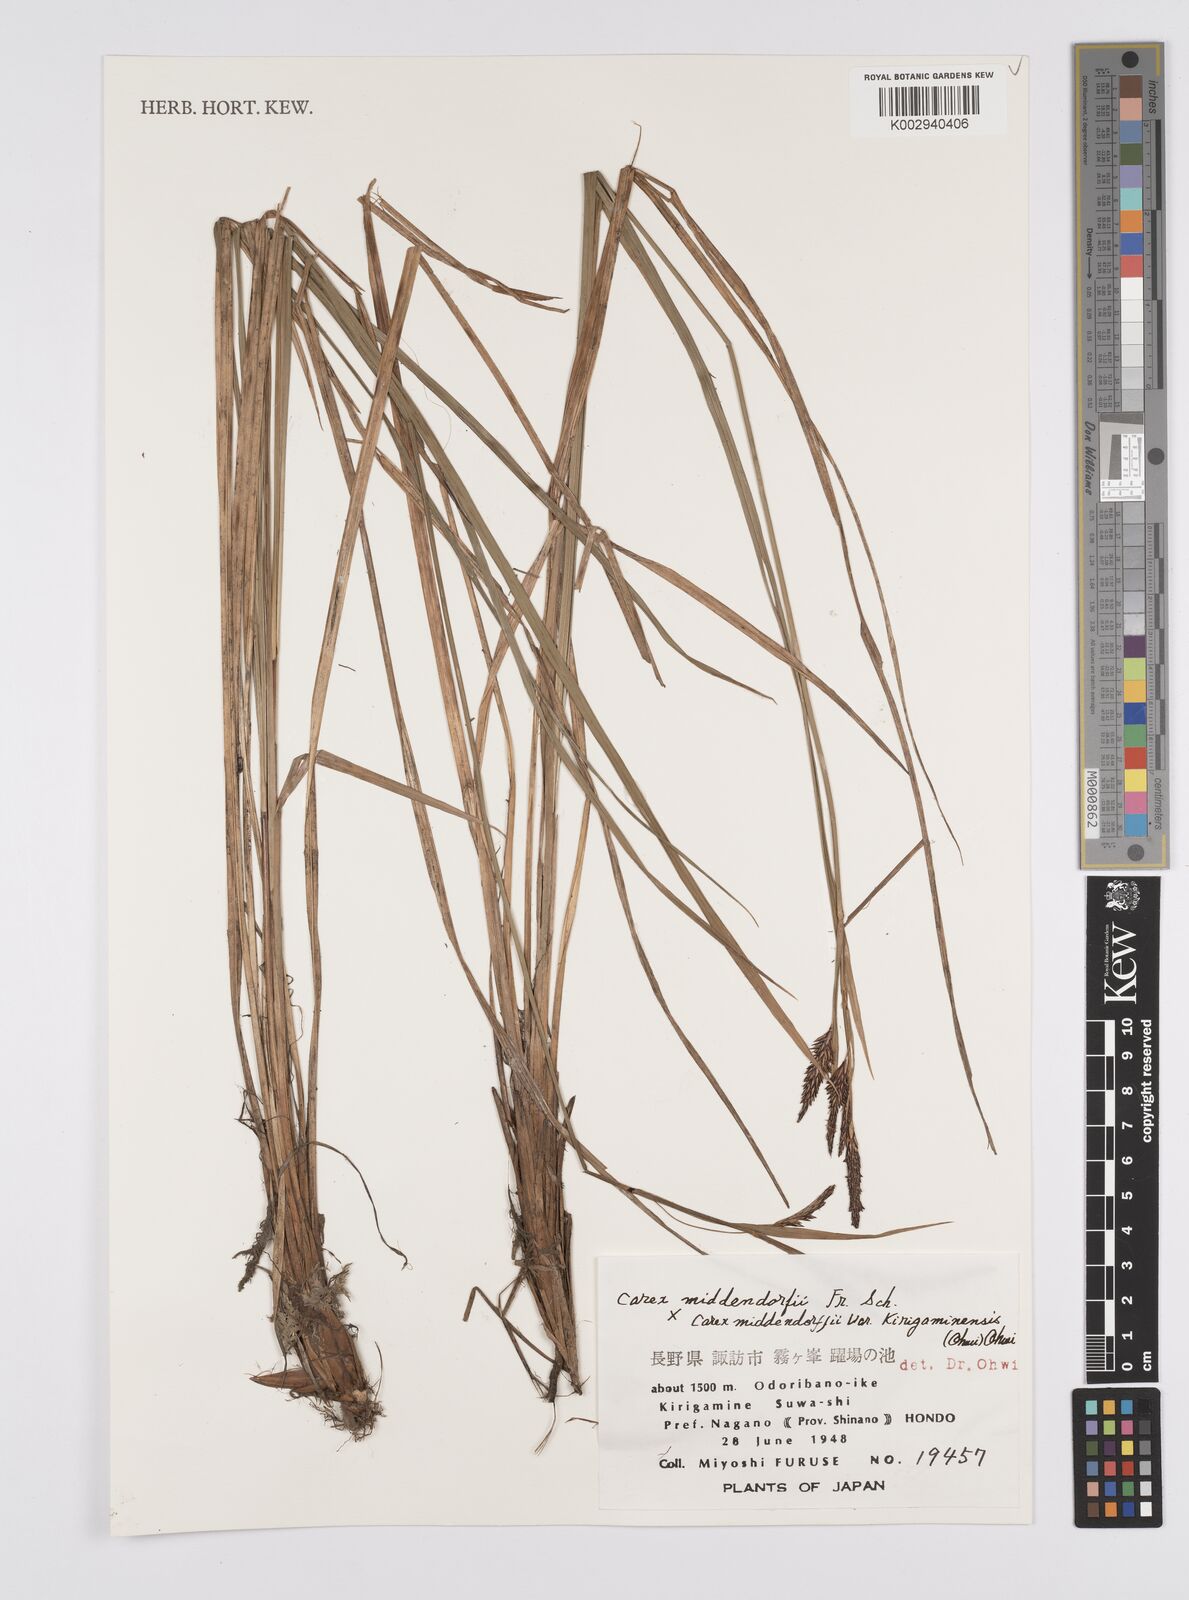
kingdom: Plantae
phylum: Tracheophyta
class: Liliopsida
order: Poales
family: Cyperaceae
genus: Carex
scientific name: Carex middendorffii
